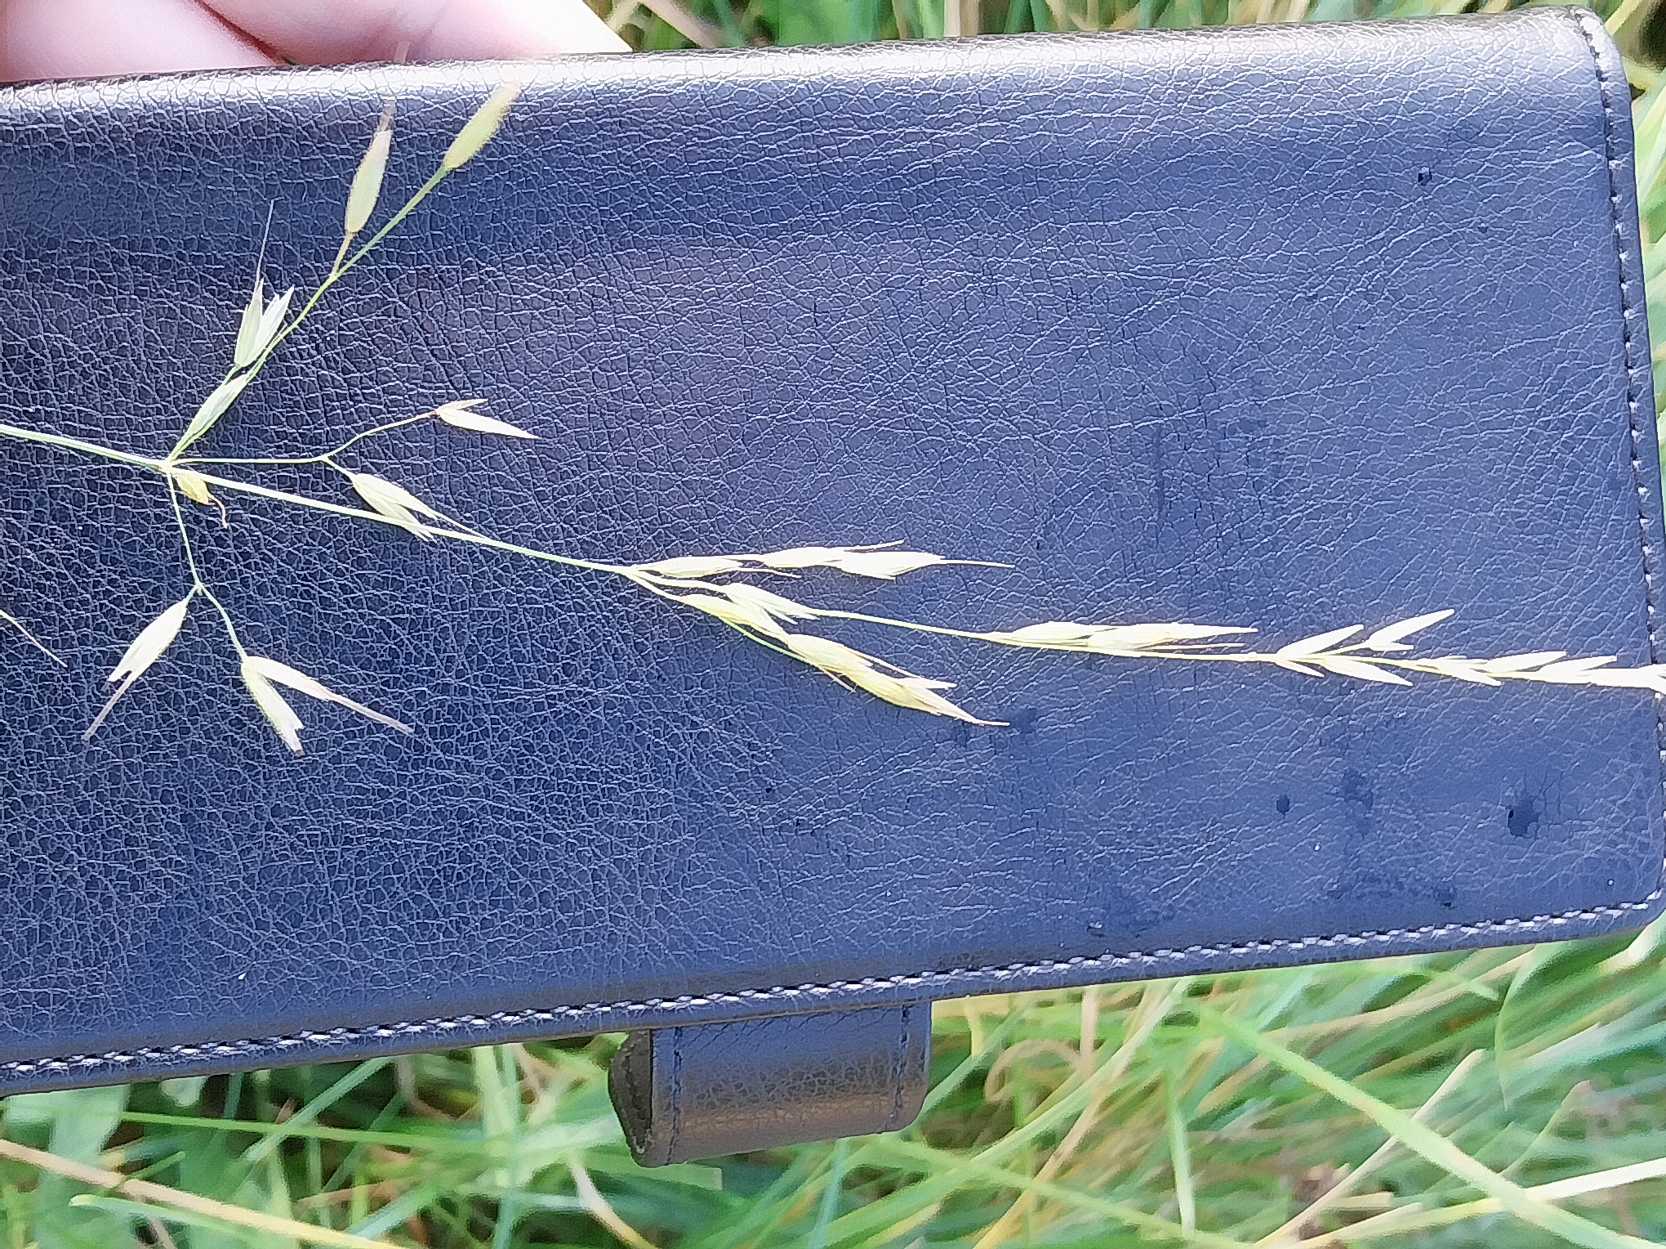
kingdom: Plantae
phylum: Tracheophyta
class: Liliopsida
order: Poales
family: Poaceae
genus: Arrhenatherum
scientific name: Arrhenatherum elatius
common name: Draphavre
